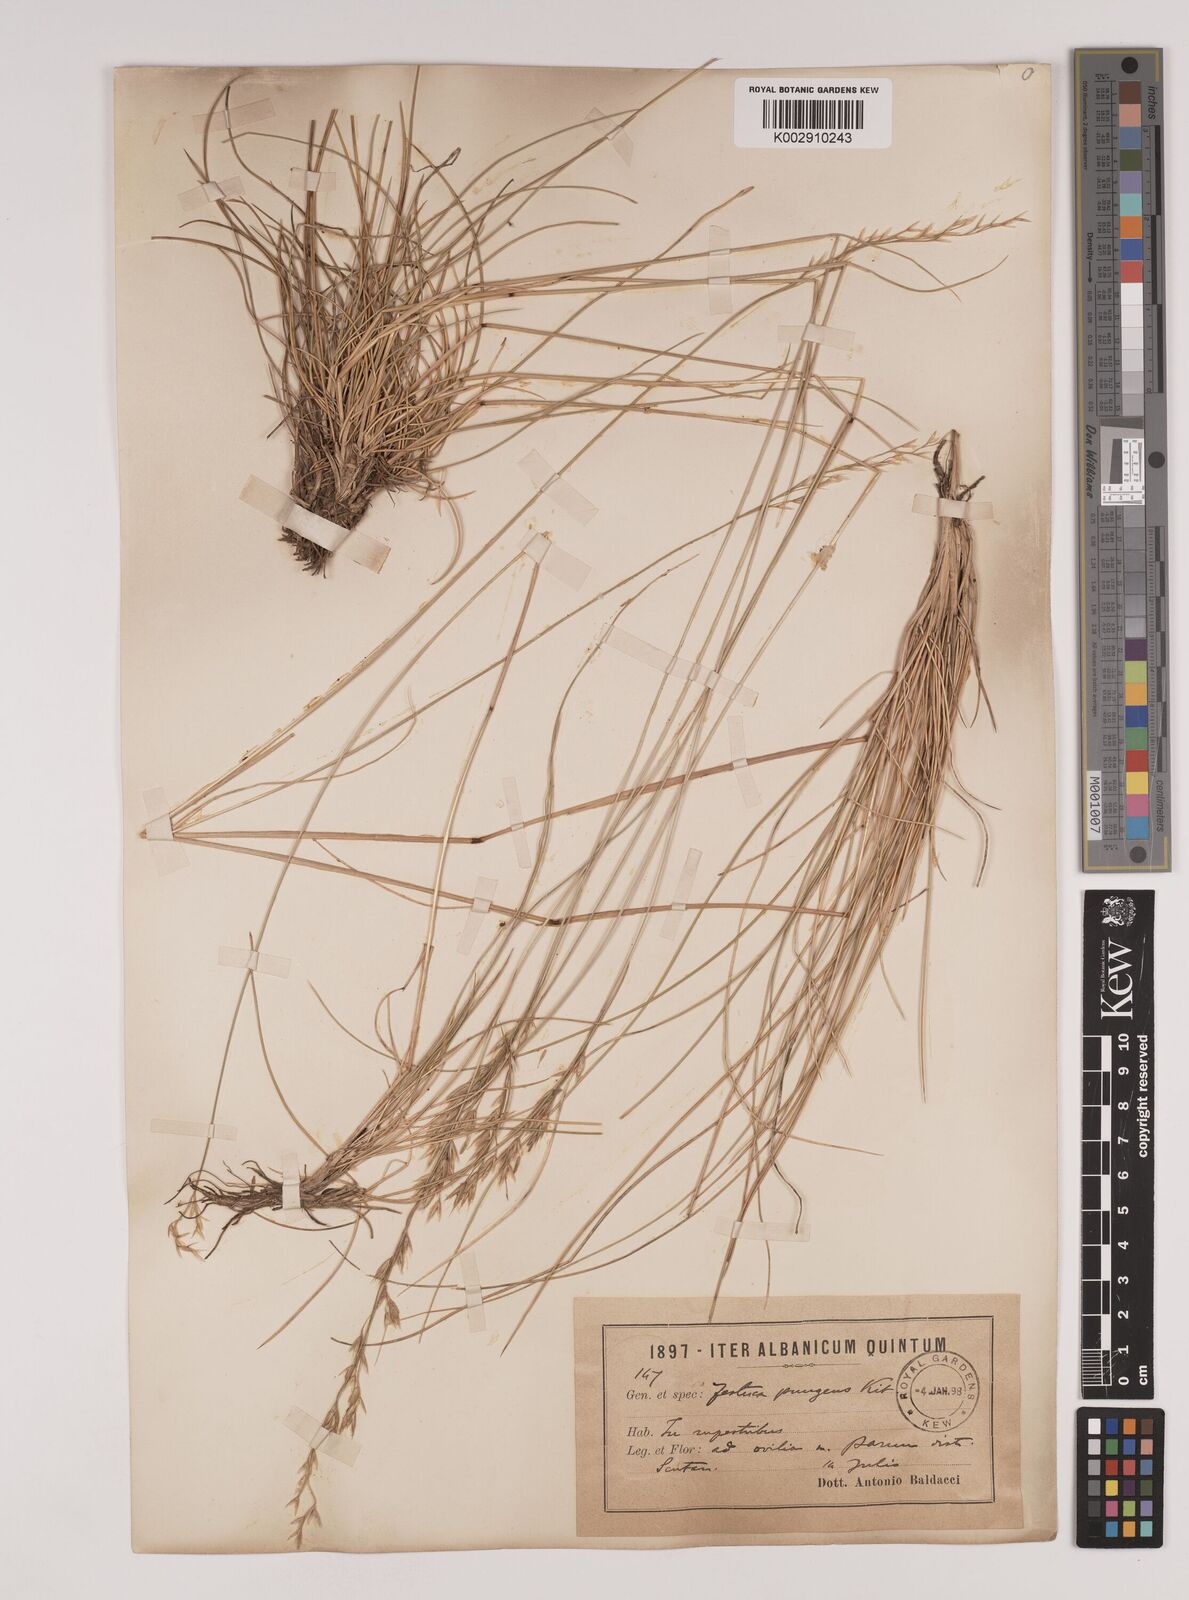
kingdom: Plantae
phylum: Tracheophyta
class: Liliopsida
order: Poales
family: Poaceae
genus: Festuca
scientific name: Festuca bosniaca
